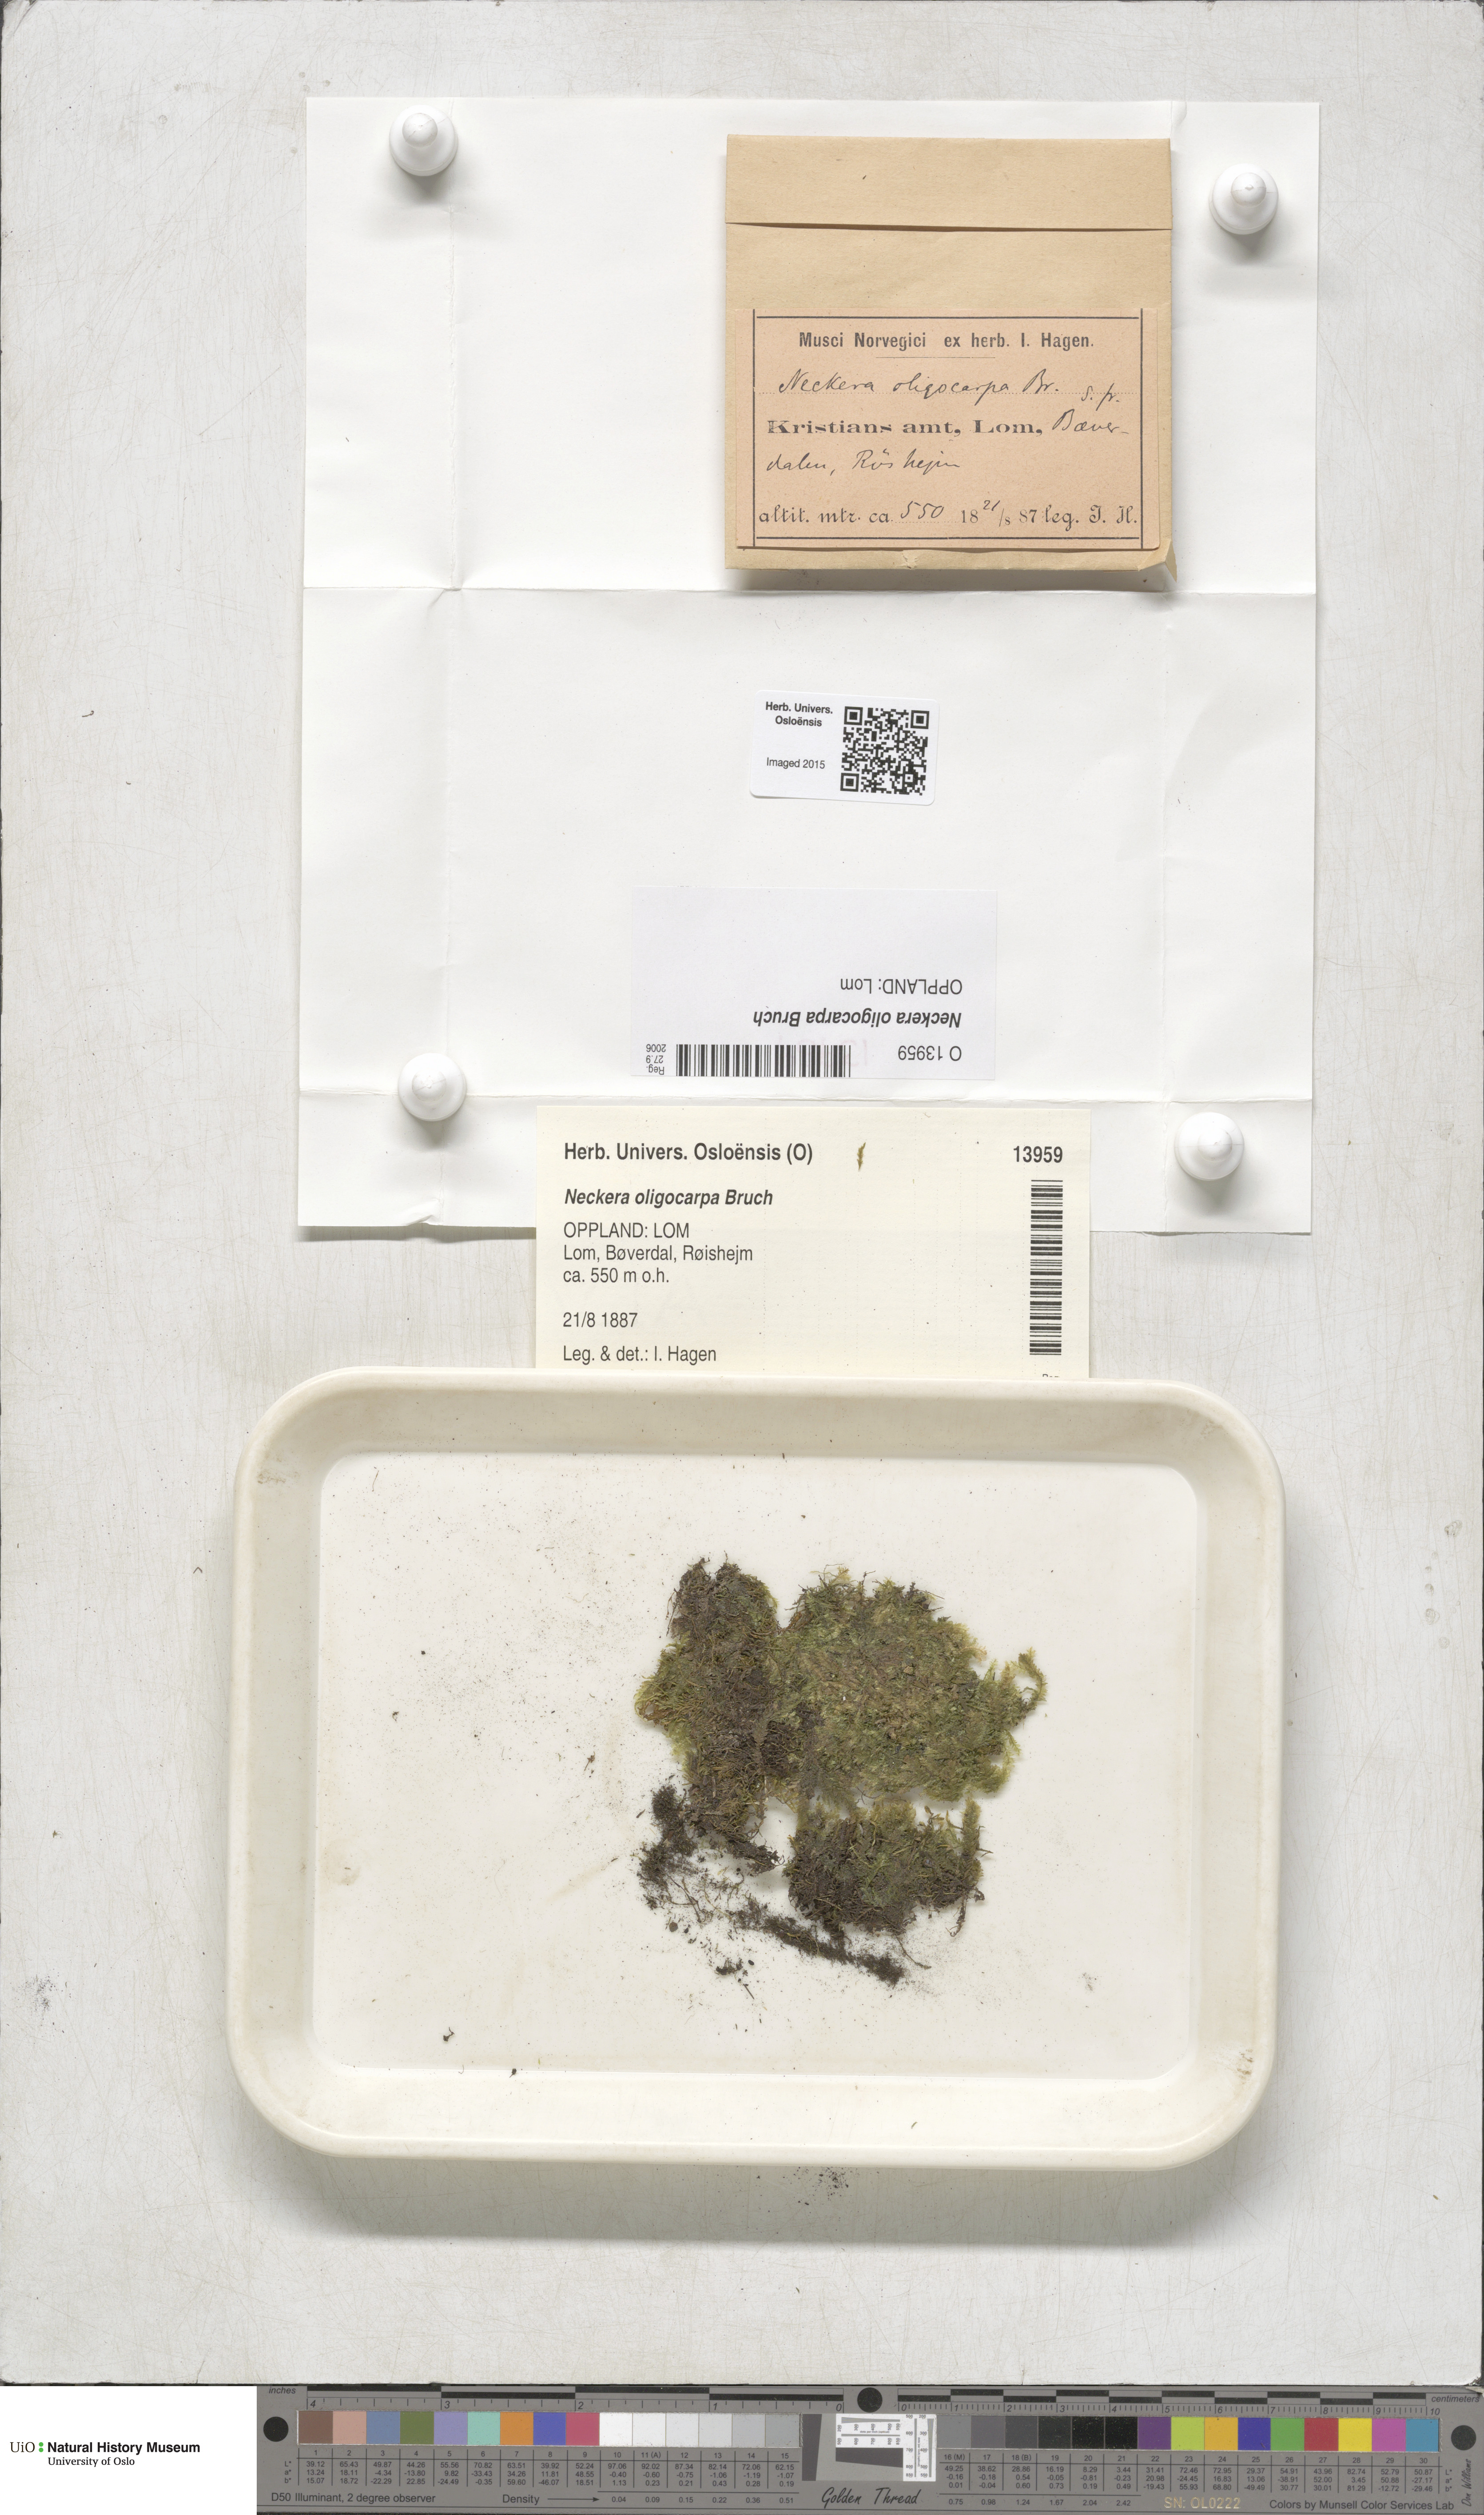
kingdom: Plantae
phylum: Bryophyta
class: Bryopsida
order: Hypnales
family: Neckeraceae
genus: Neckera
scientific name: Neckera oligocarpa
